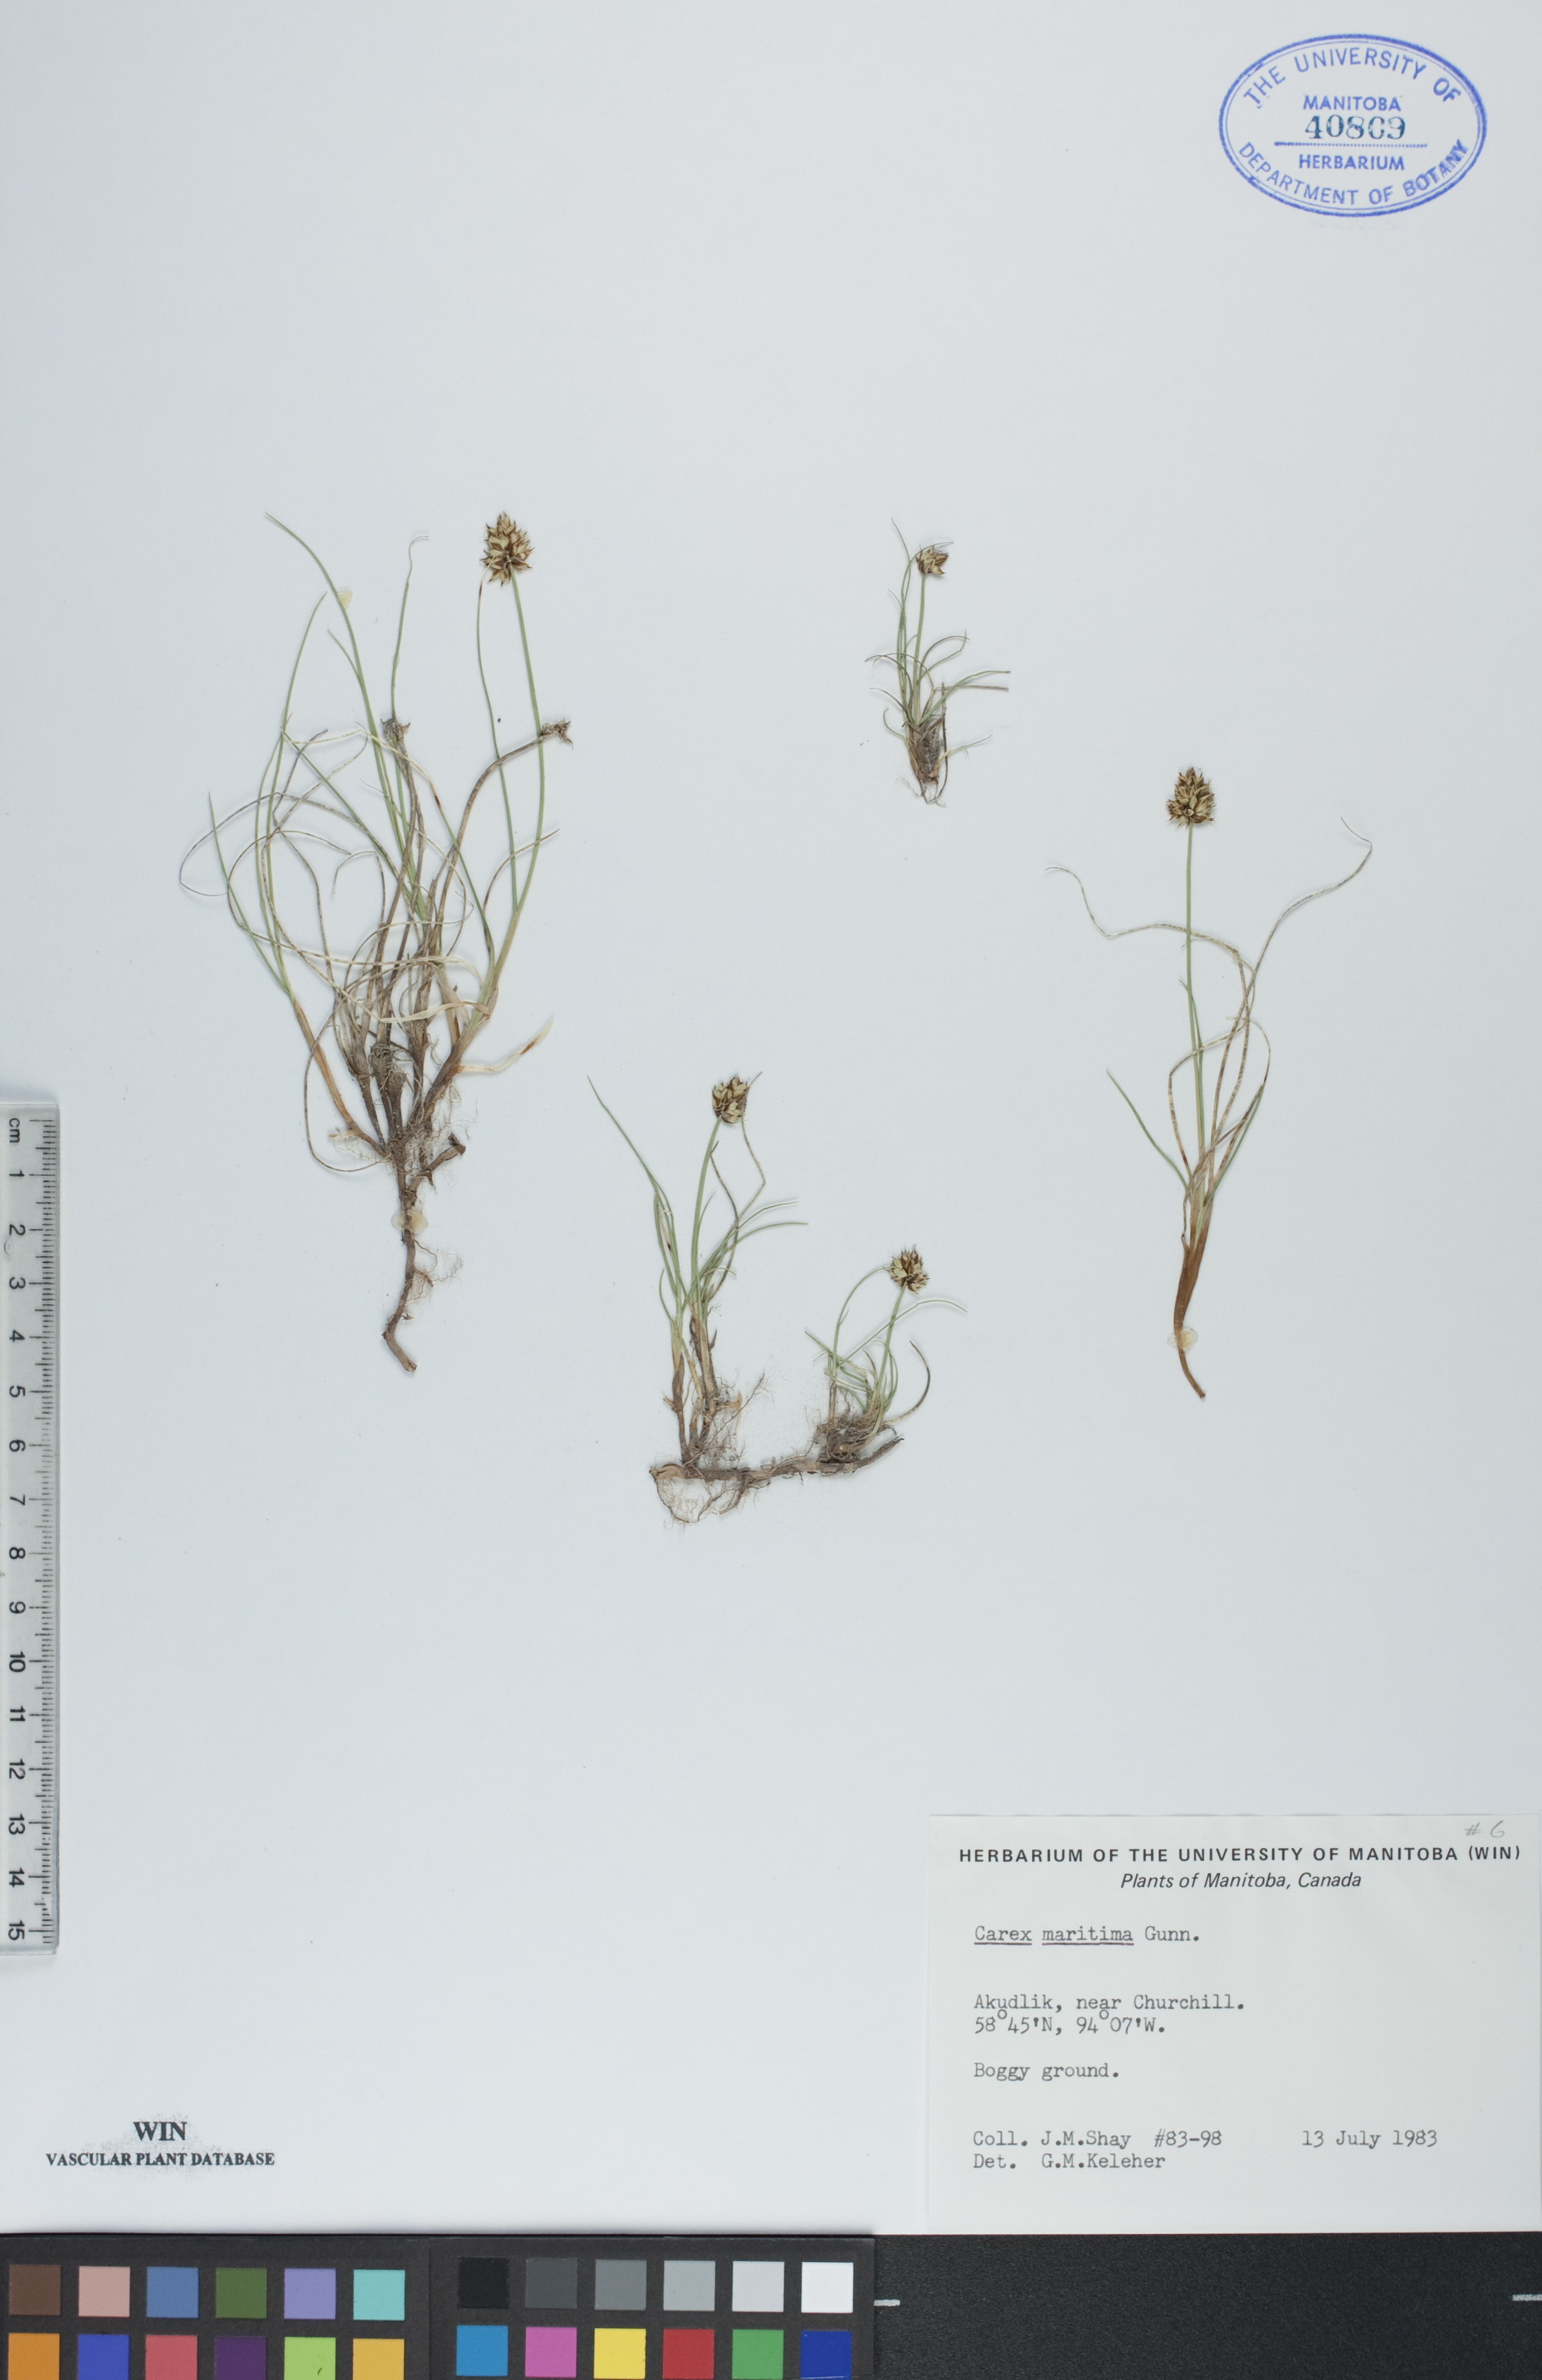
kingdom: Plantae
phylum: Tracheophyta
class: Liliopsida
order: Poales
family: Cyperaceae
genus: Carex
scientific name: Carex maritima
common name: Curved sedge
